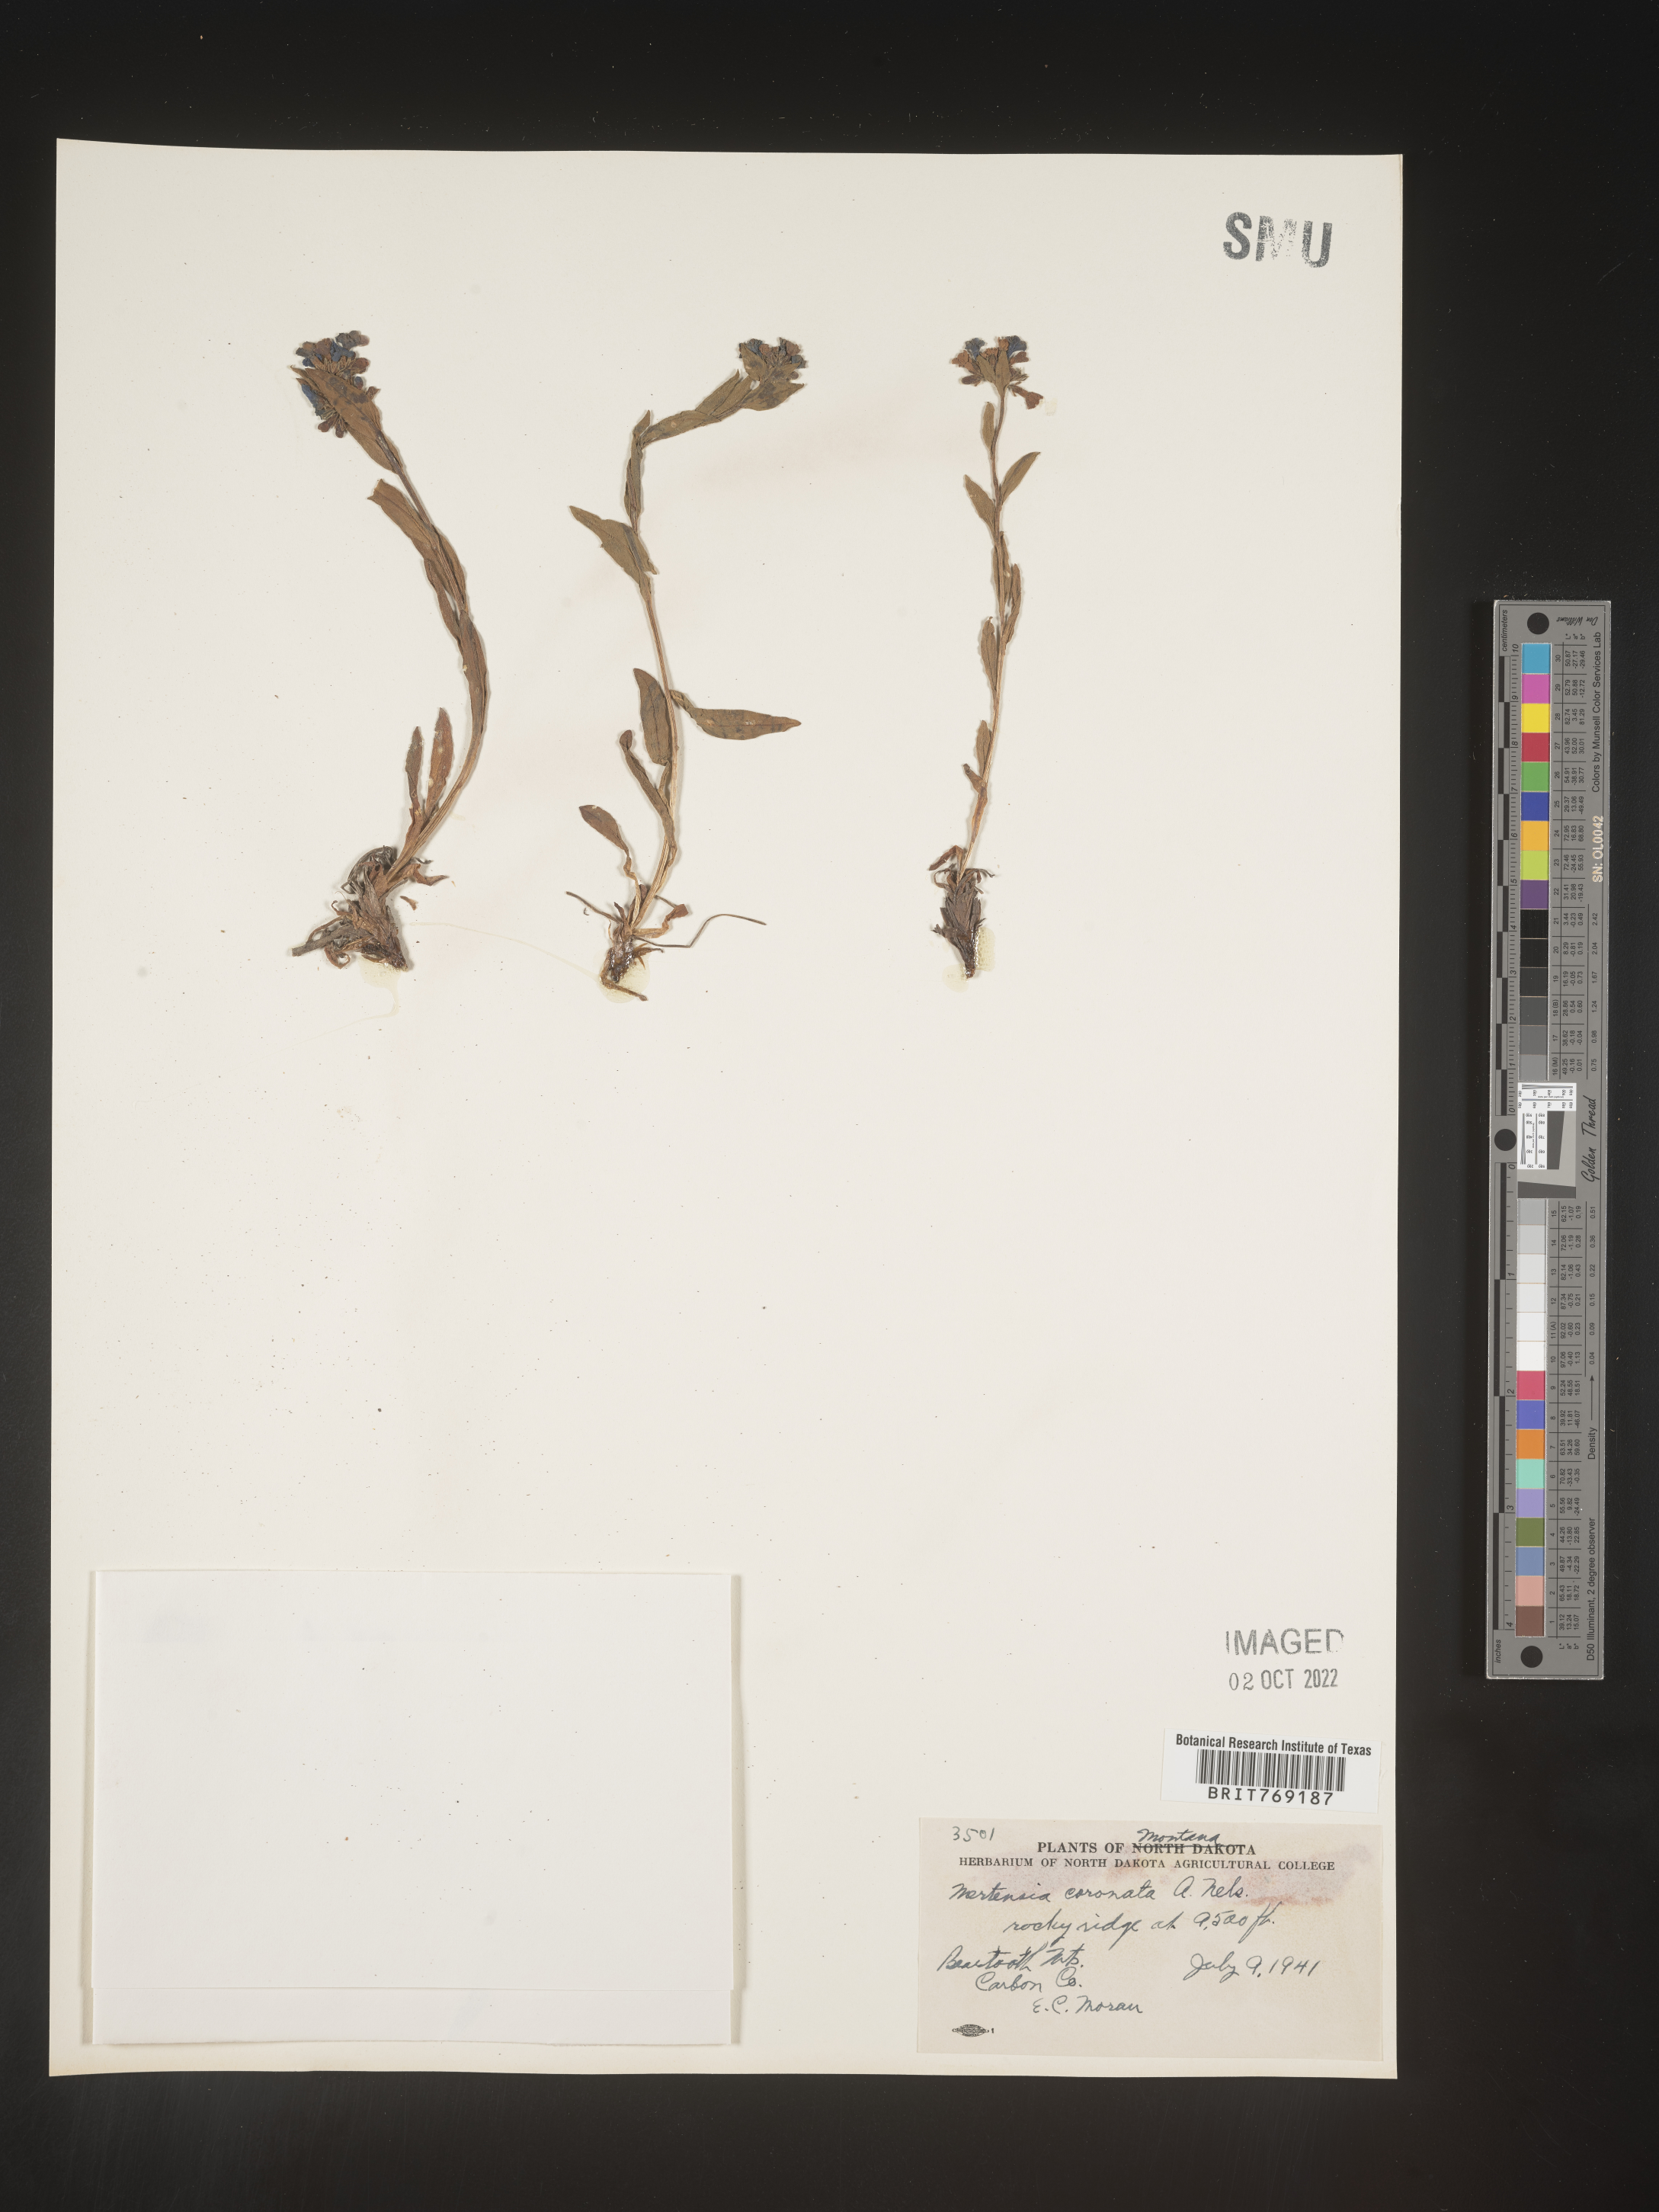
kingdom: Plantae
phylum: Tracheophyta
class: Magnoliopsida
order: Boraginales
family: Boraginaceae
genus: Mertensia
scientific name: Mertensia
